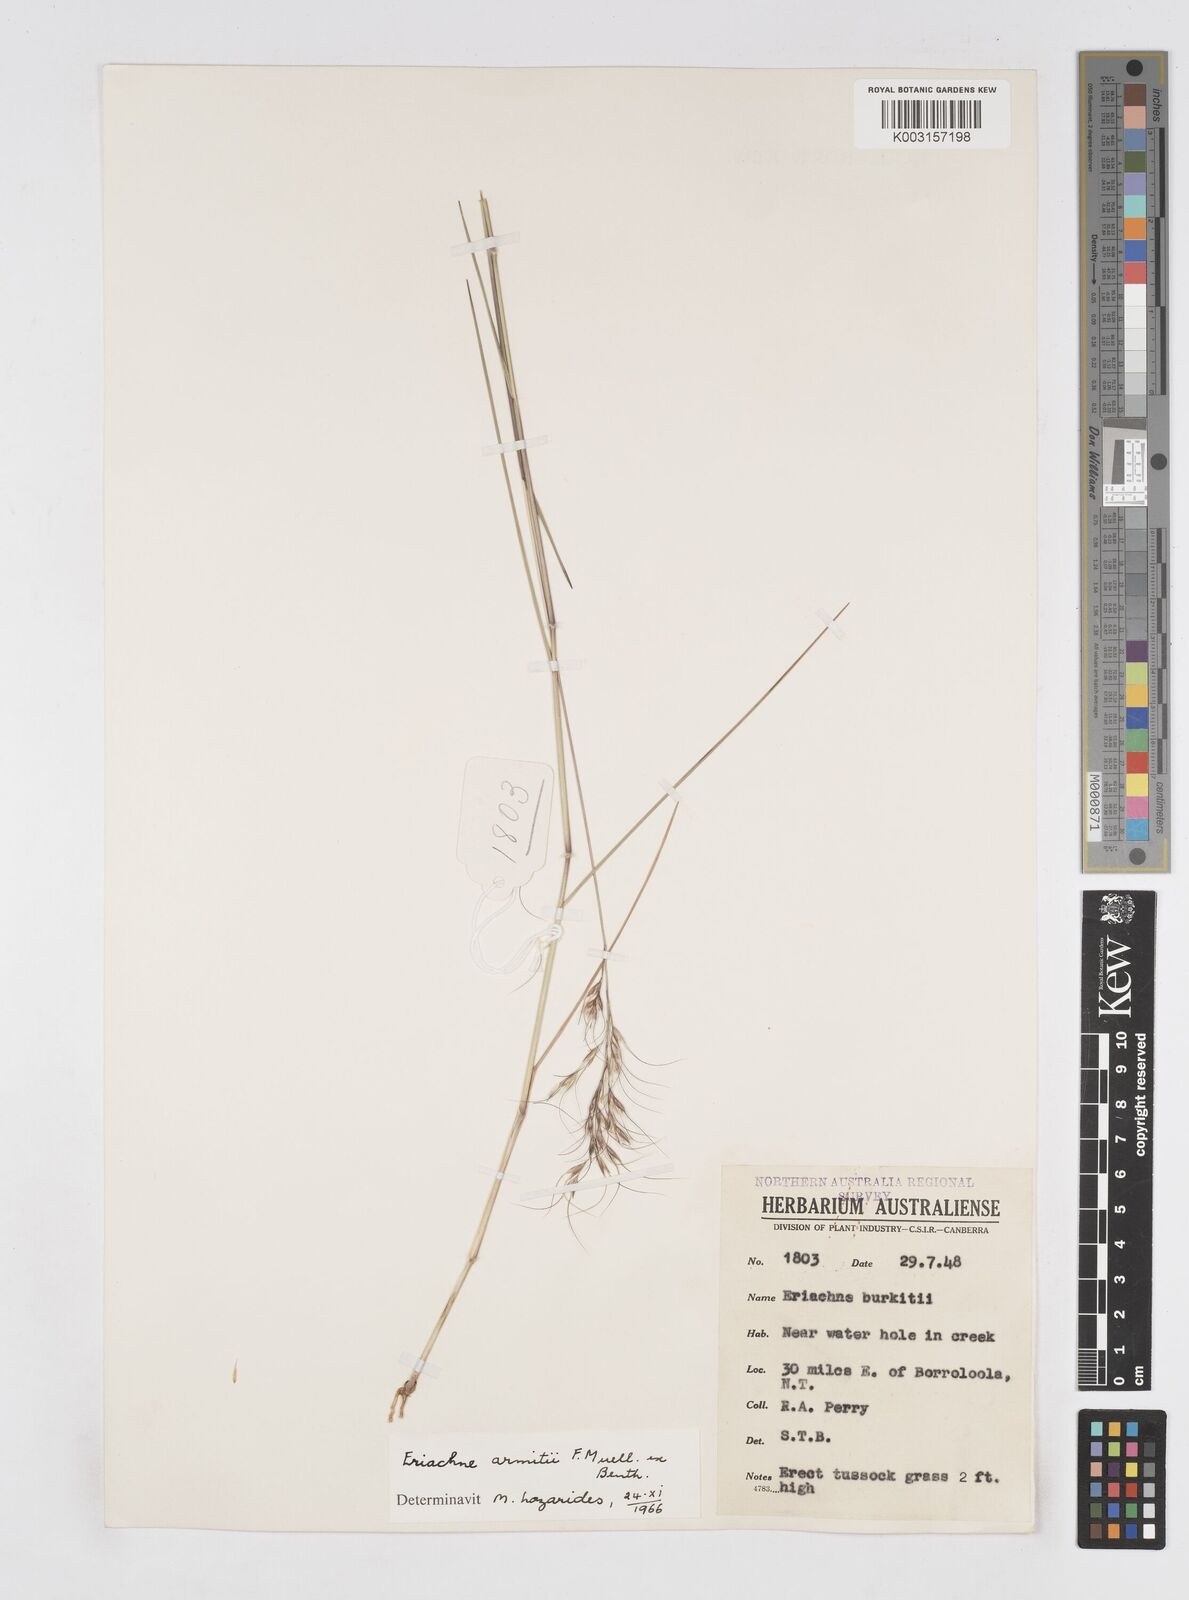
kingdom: Plantae
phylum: Tracheophyta
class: Liliopsida
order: Poales
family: Poaceae
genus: Eriachne
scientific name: Eriachne armitii
